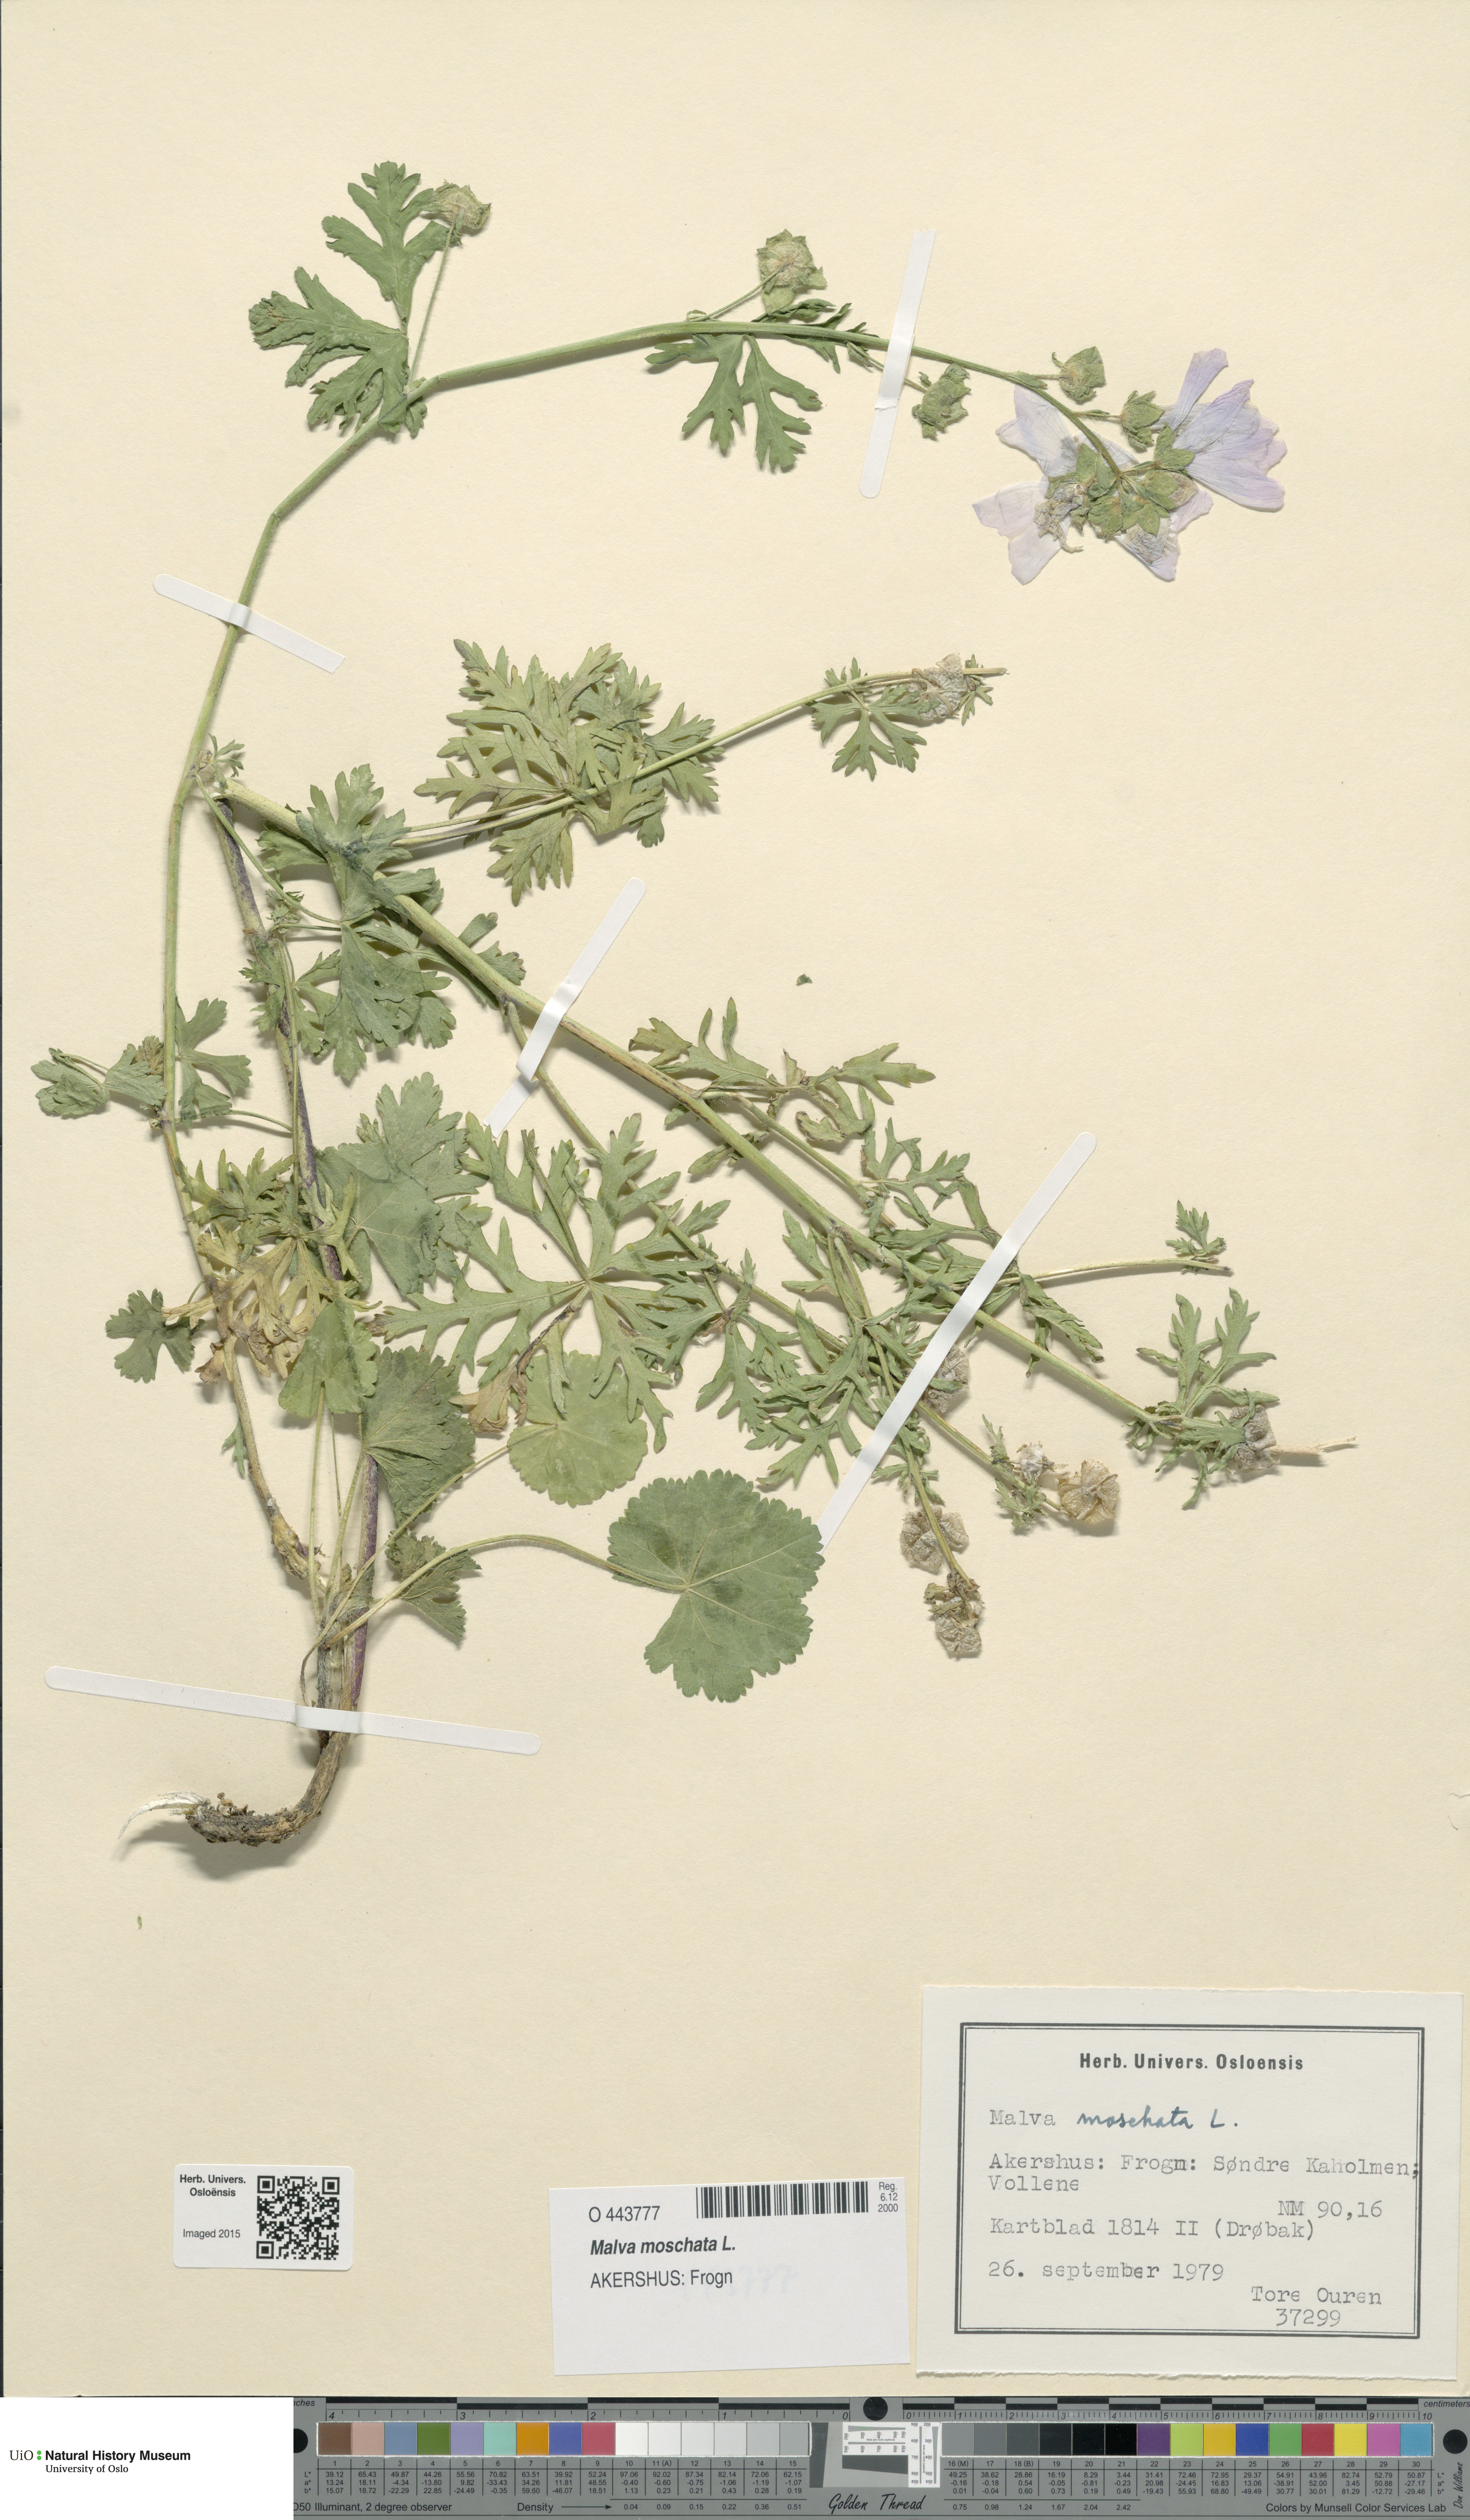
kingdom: Plantae
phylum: Tracheophyta
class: Magnoliopsida
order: Malvales
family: Malvaceae
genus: Malva
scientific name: Malva moschata
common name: Musk mallow
